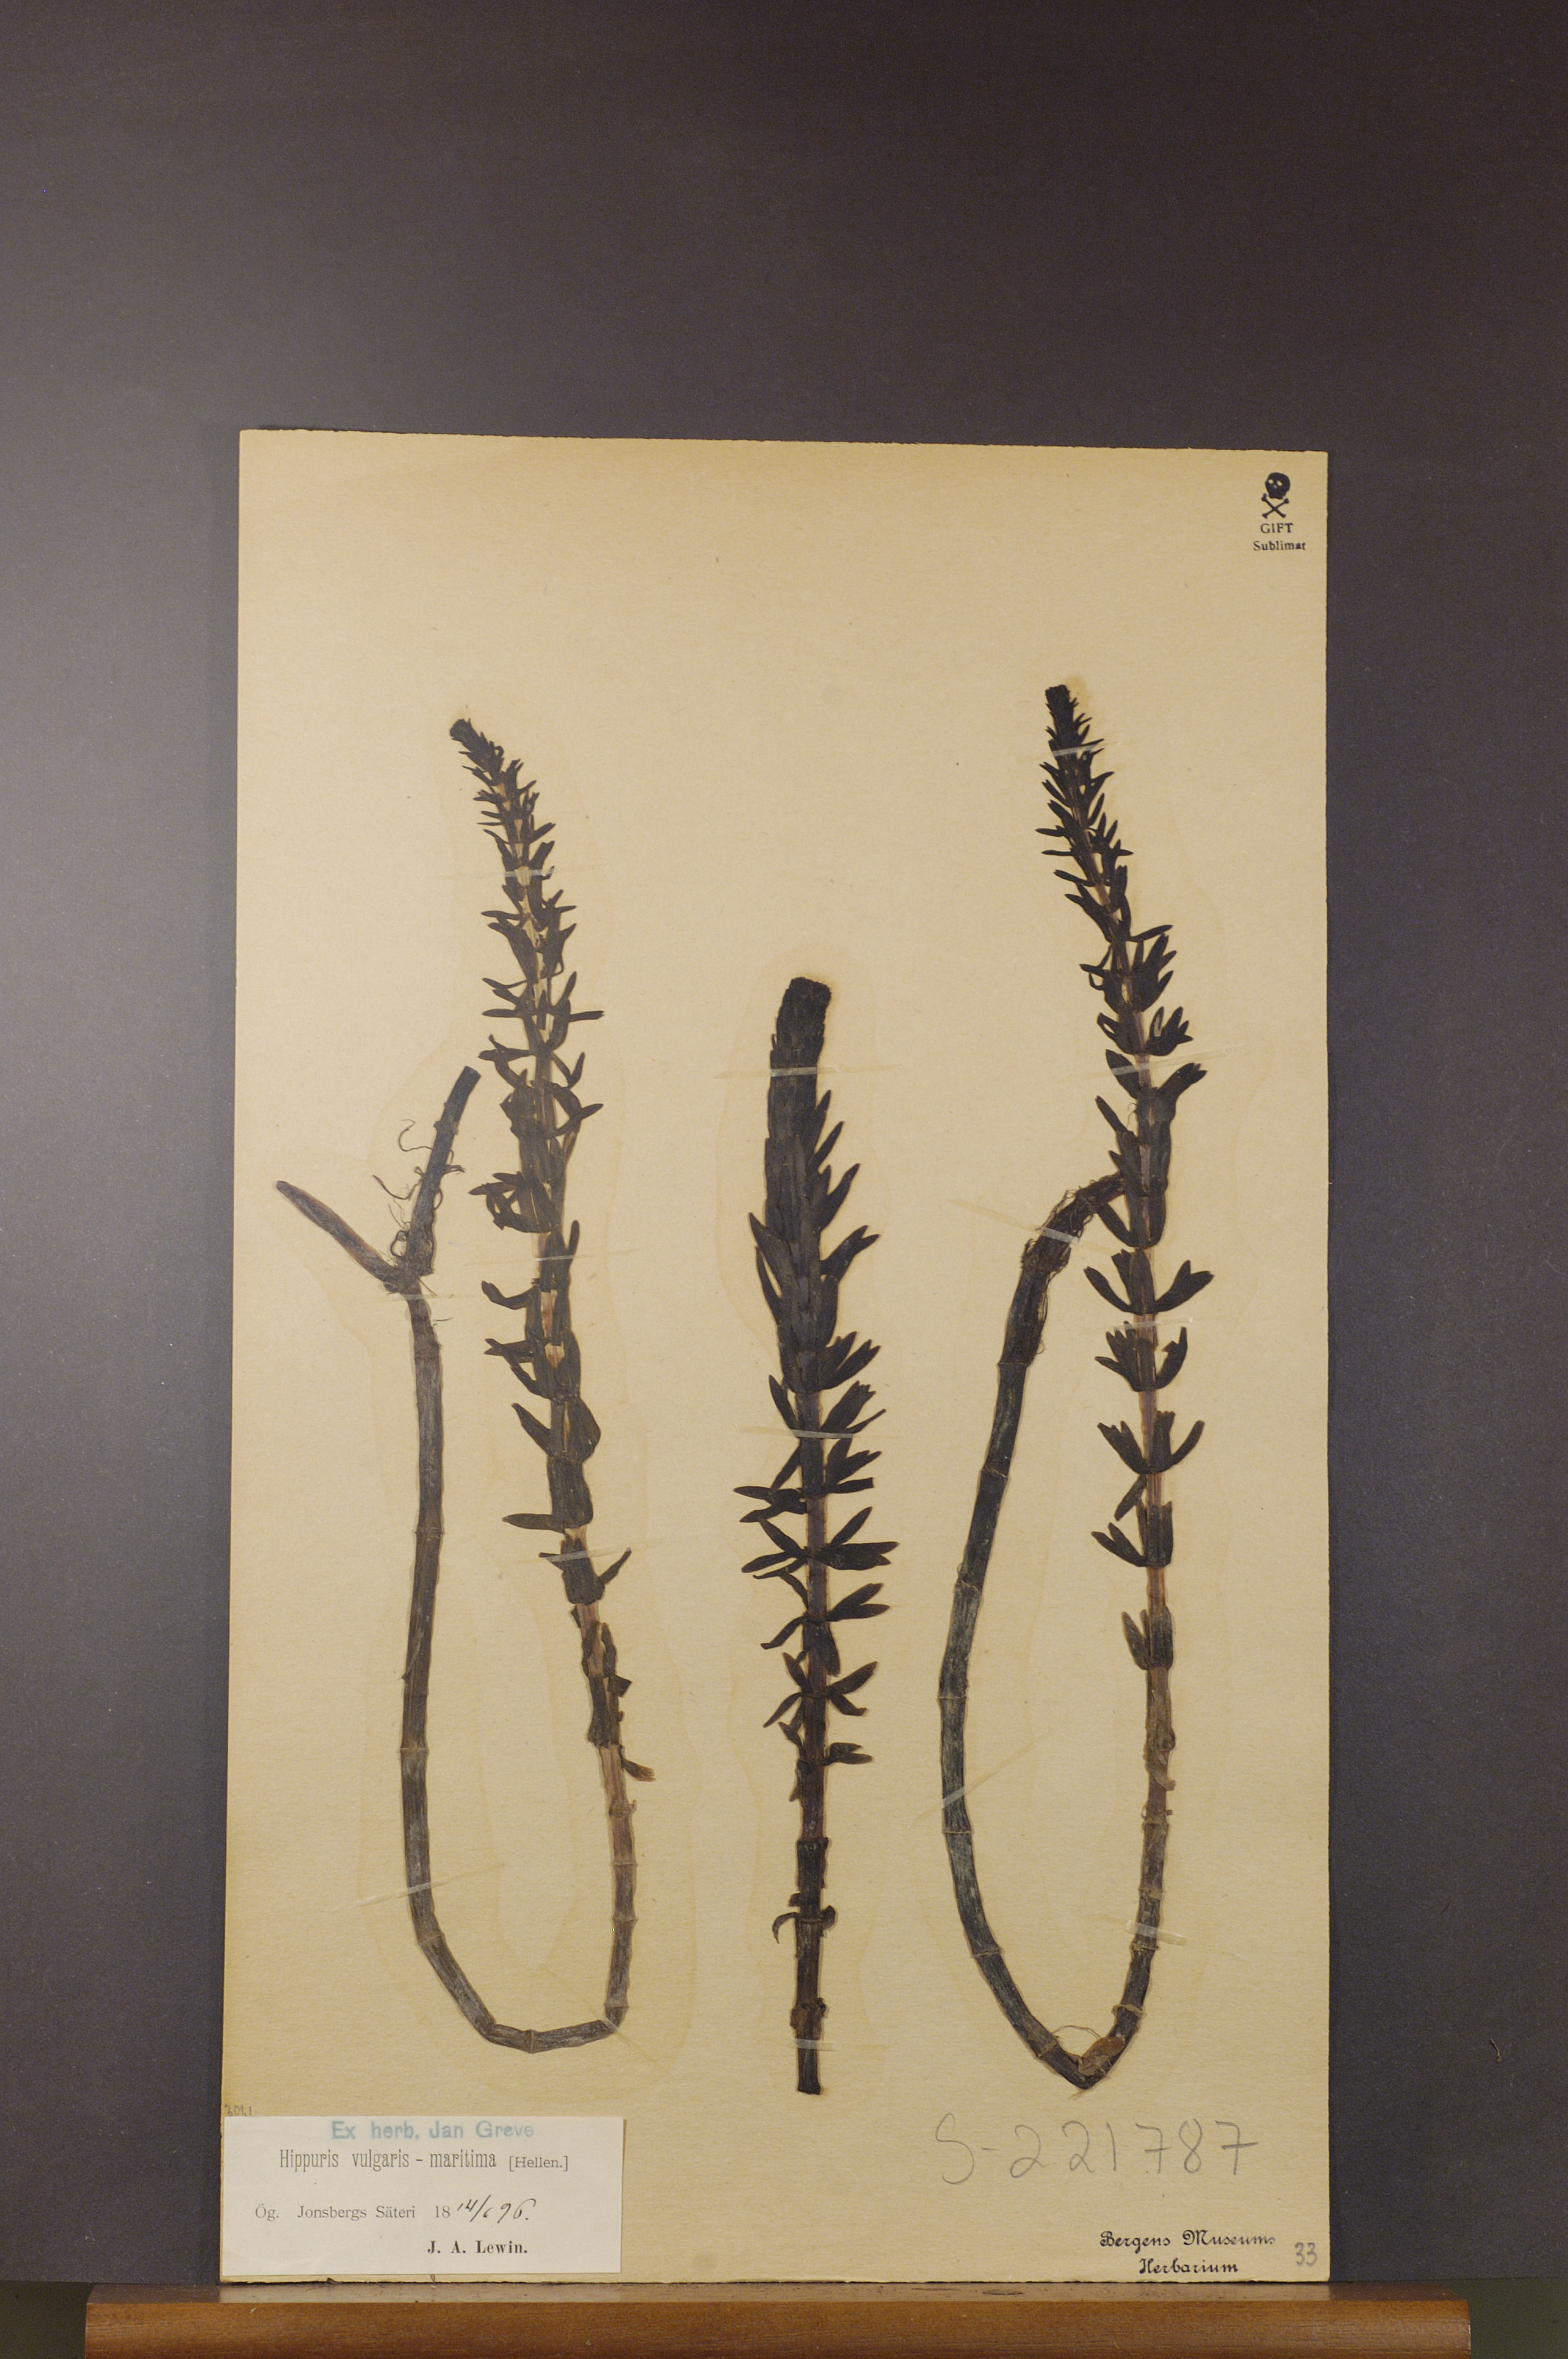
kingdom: Plantae
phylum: Tracheophyta
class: Magnoliopsida
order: Lamiales
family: Plantaginaceae
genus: Hippuris
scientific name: Hippuris lanceolata
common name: Lance-leaved mare's-tail
